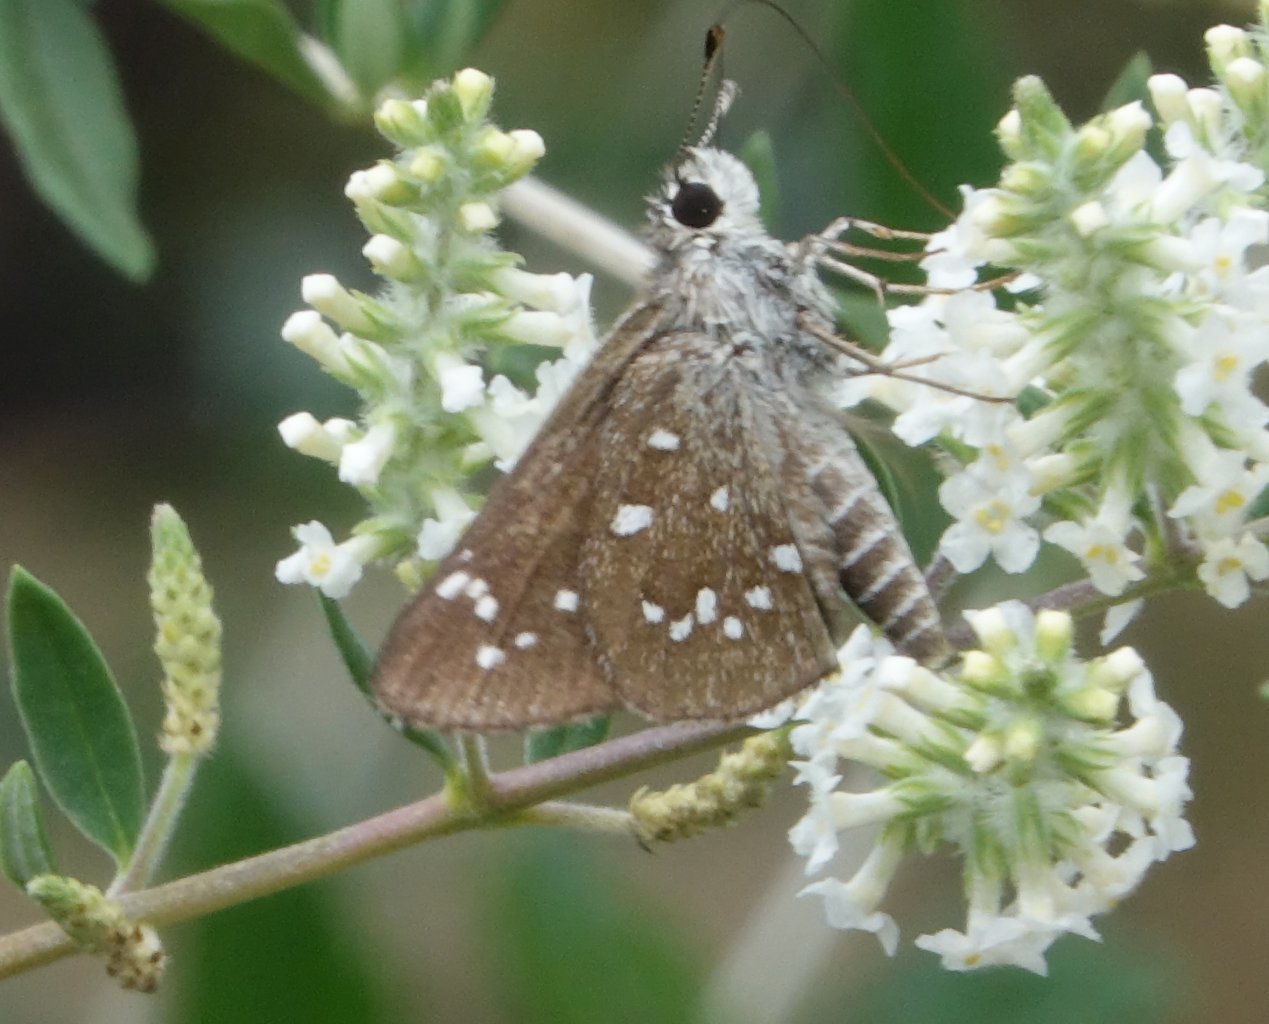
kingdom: Animalia
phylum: Arthropoda
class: Insecta
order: Lepidoptera
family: Hesperiidae
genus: Mastor
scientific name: Mastor eos
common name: Dotted Roadside-Skipper
